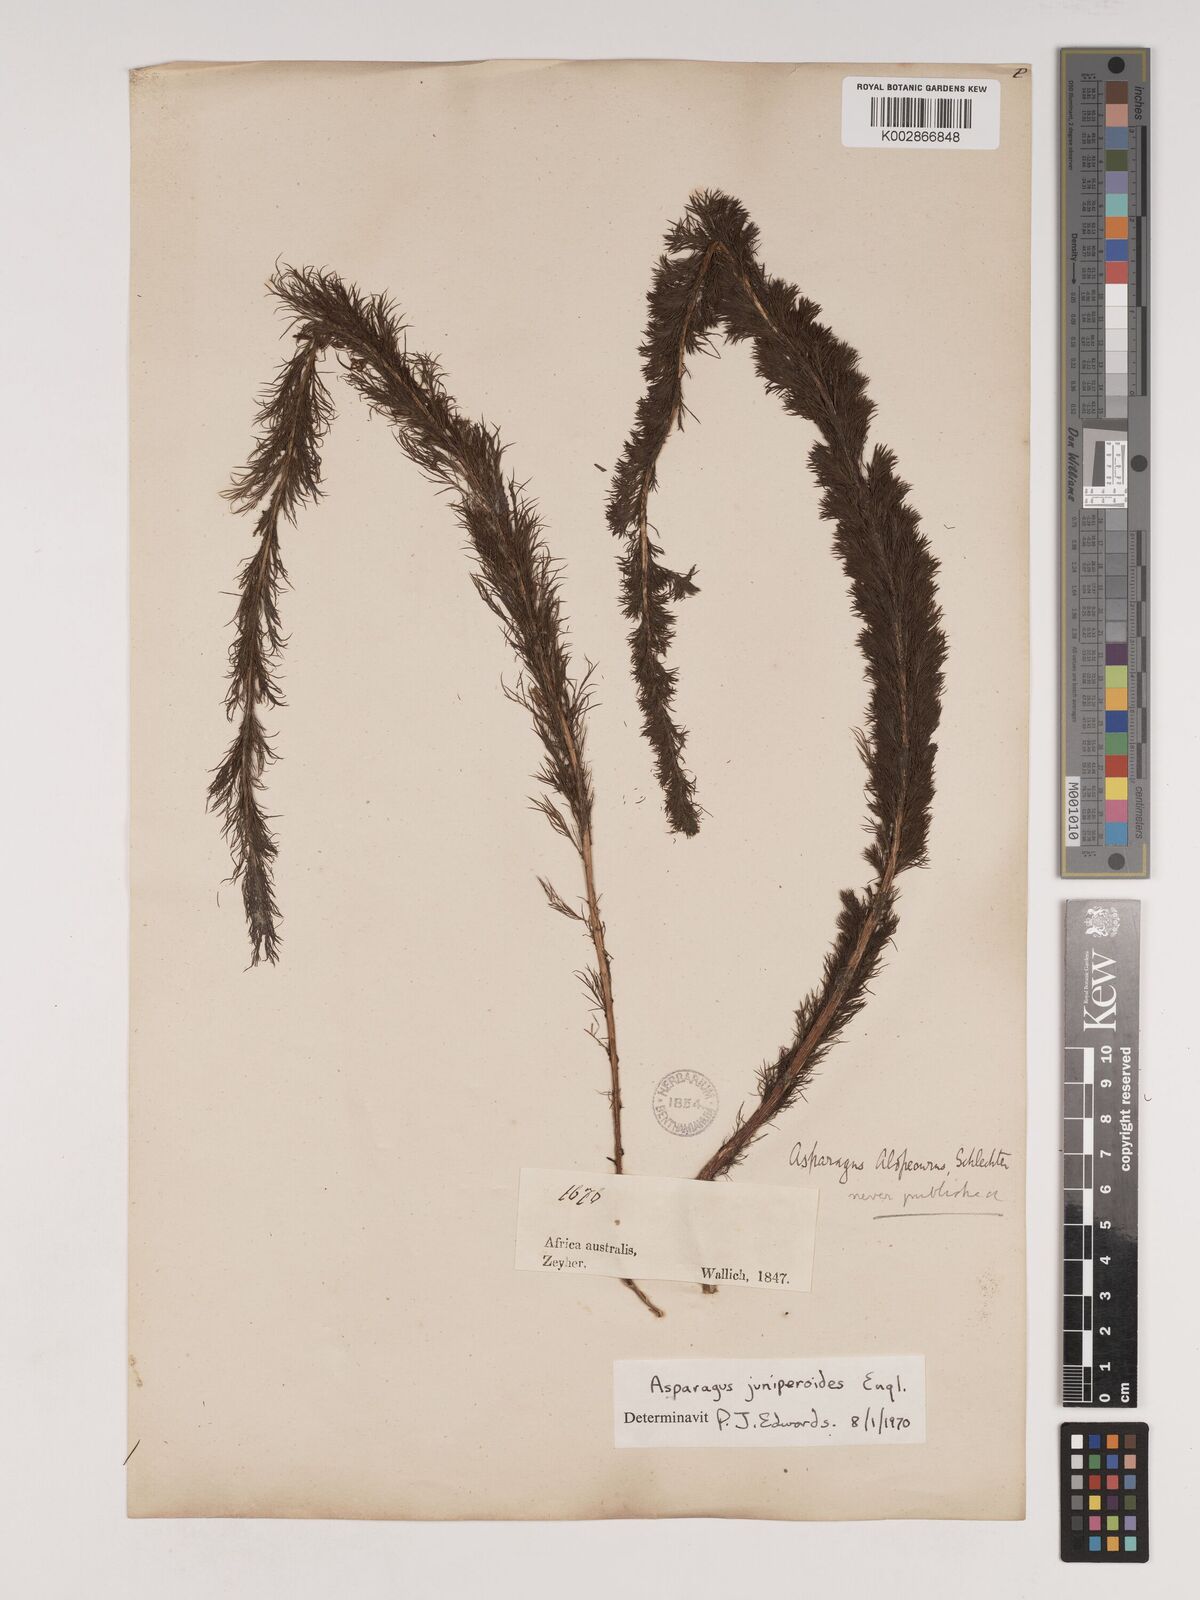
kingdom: Plantae
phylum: Tracheophyta
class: Liliopsida
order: Asparagales
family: Asparagaceae
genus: Asparagus
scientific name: Asparagus juniperoides
